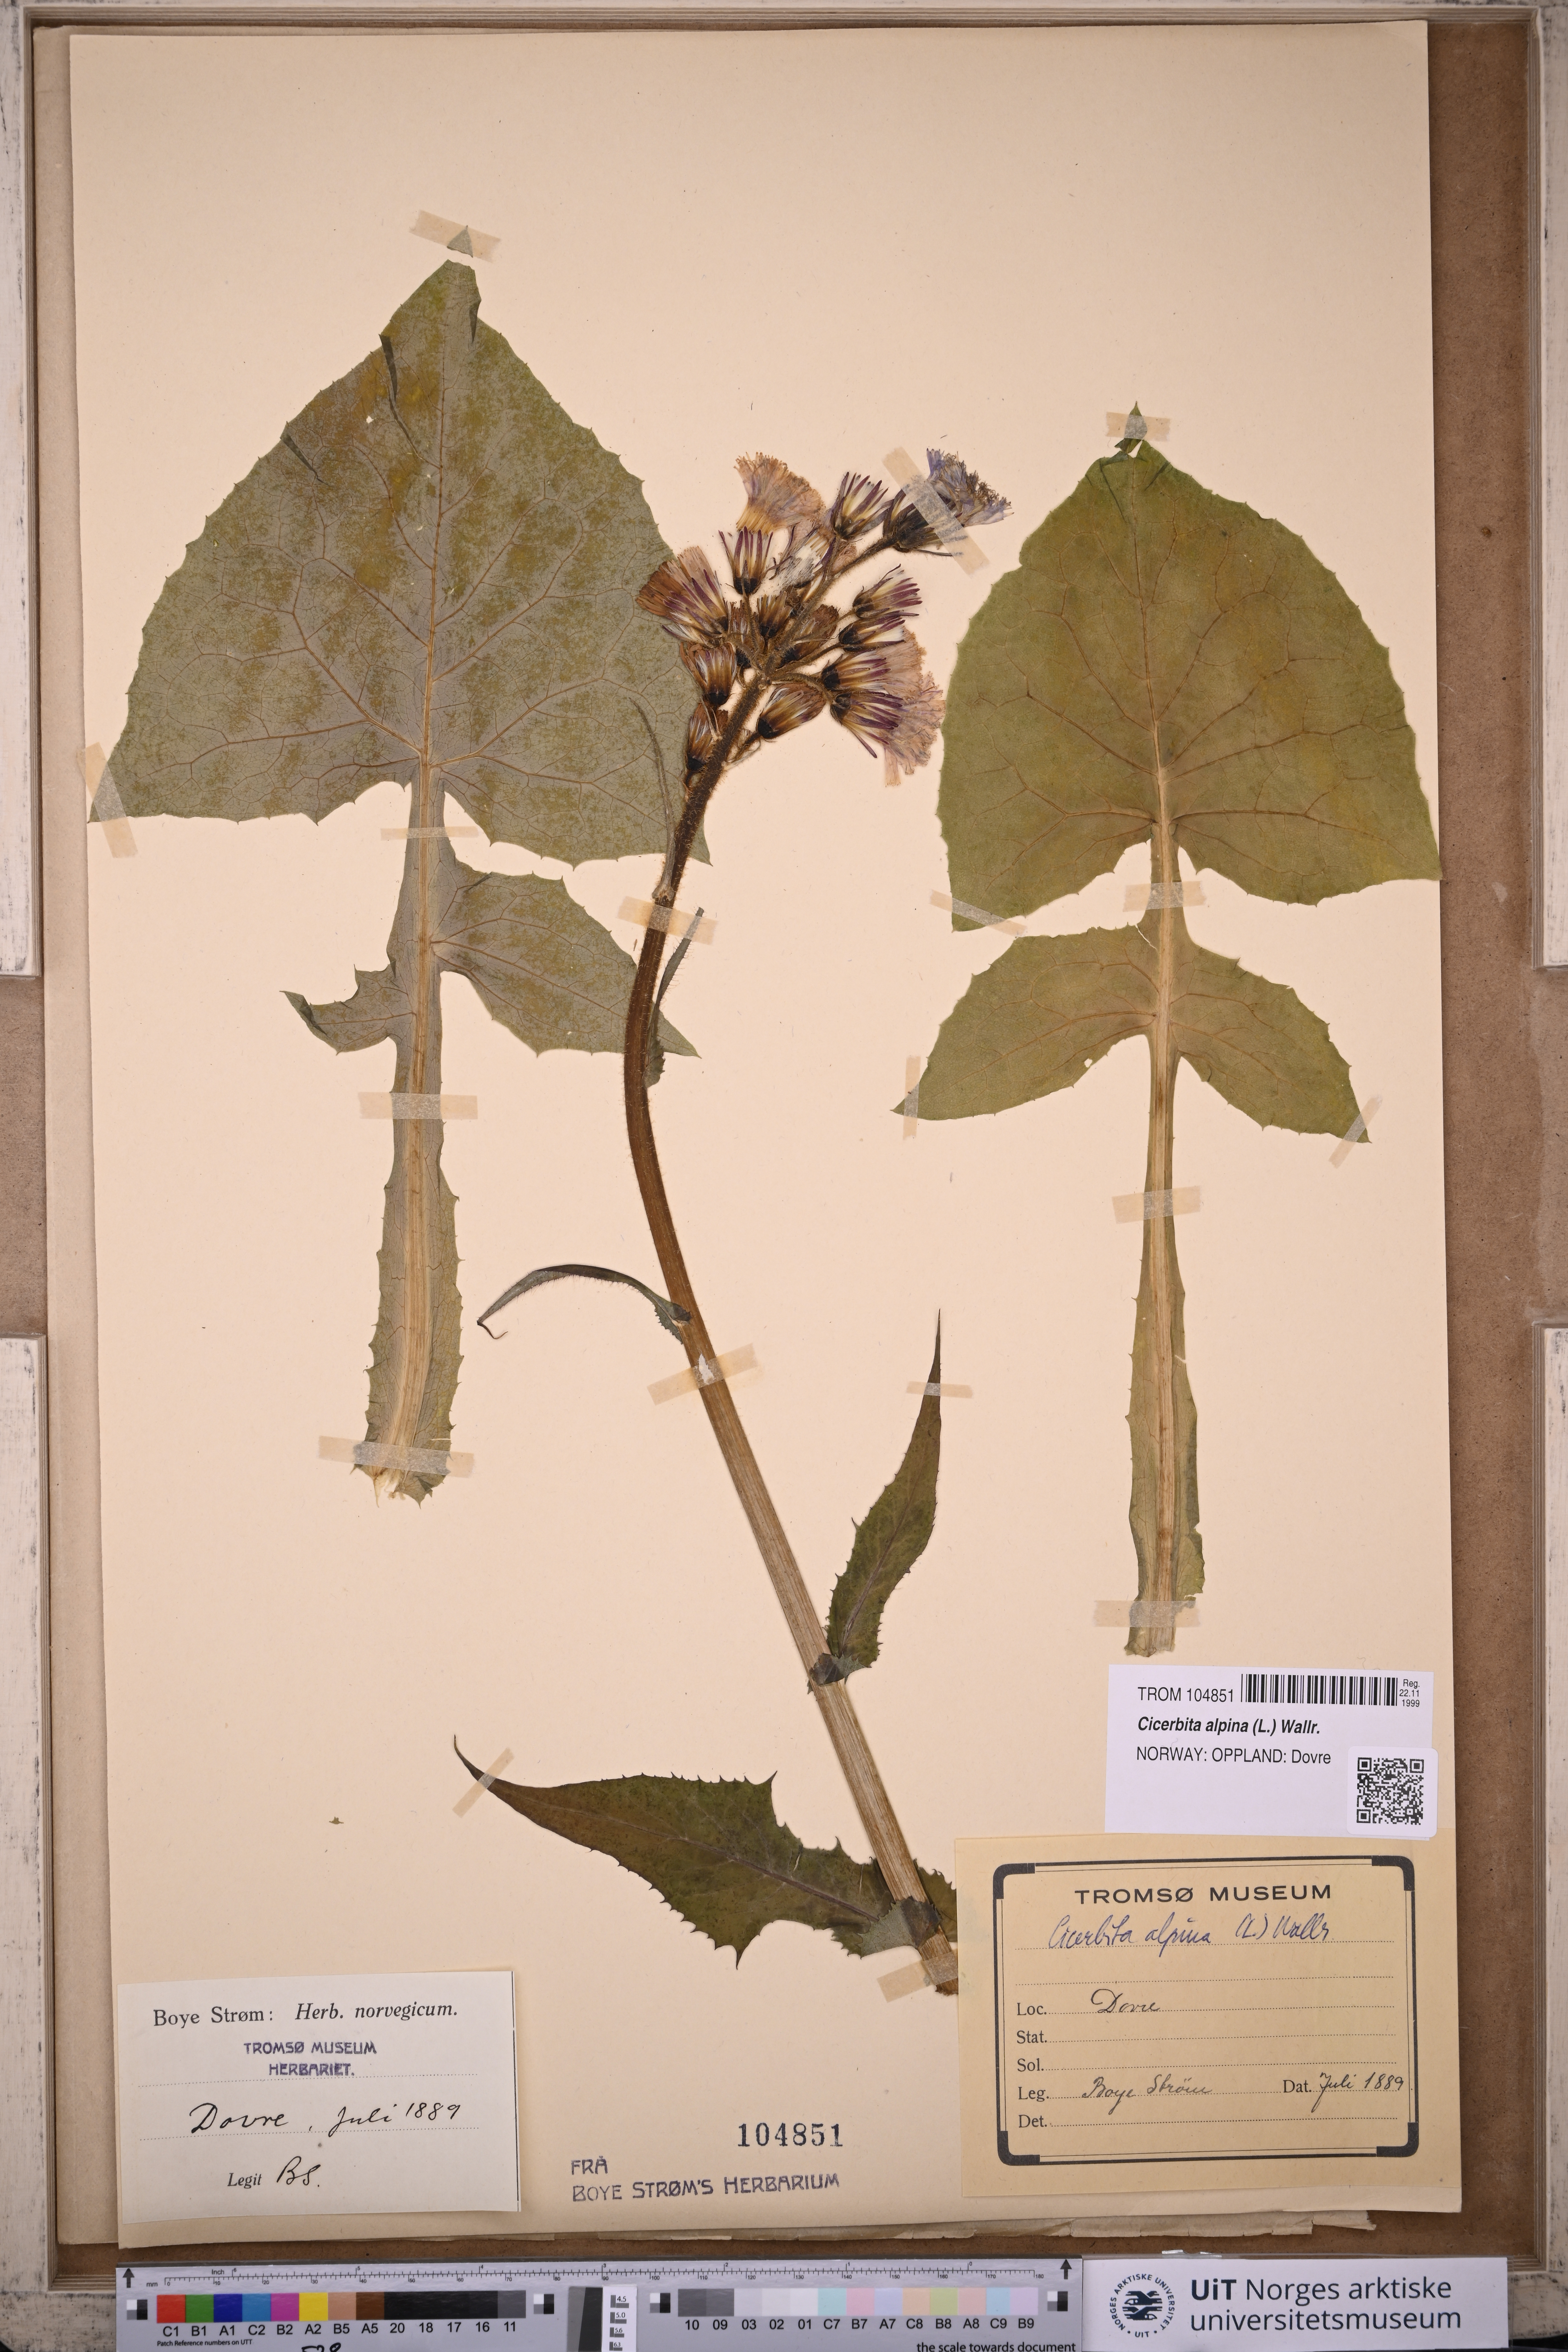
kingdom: Plantae
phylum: Tracheophyta
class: Magnoliopsida
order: Asterales
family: Asteraceae
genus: Cicerbita
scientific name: Cicerbita alpina
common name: Alpine blue-sow-thistle
